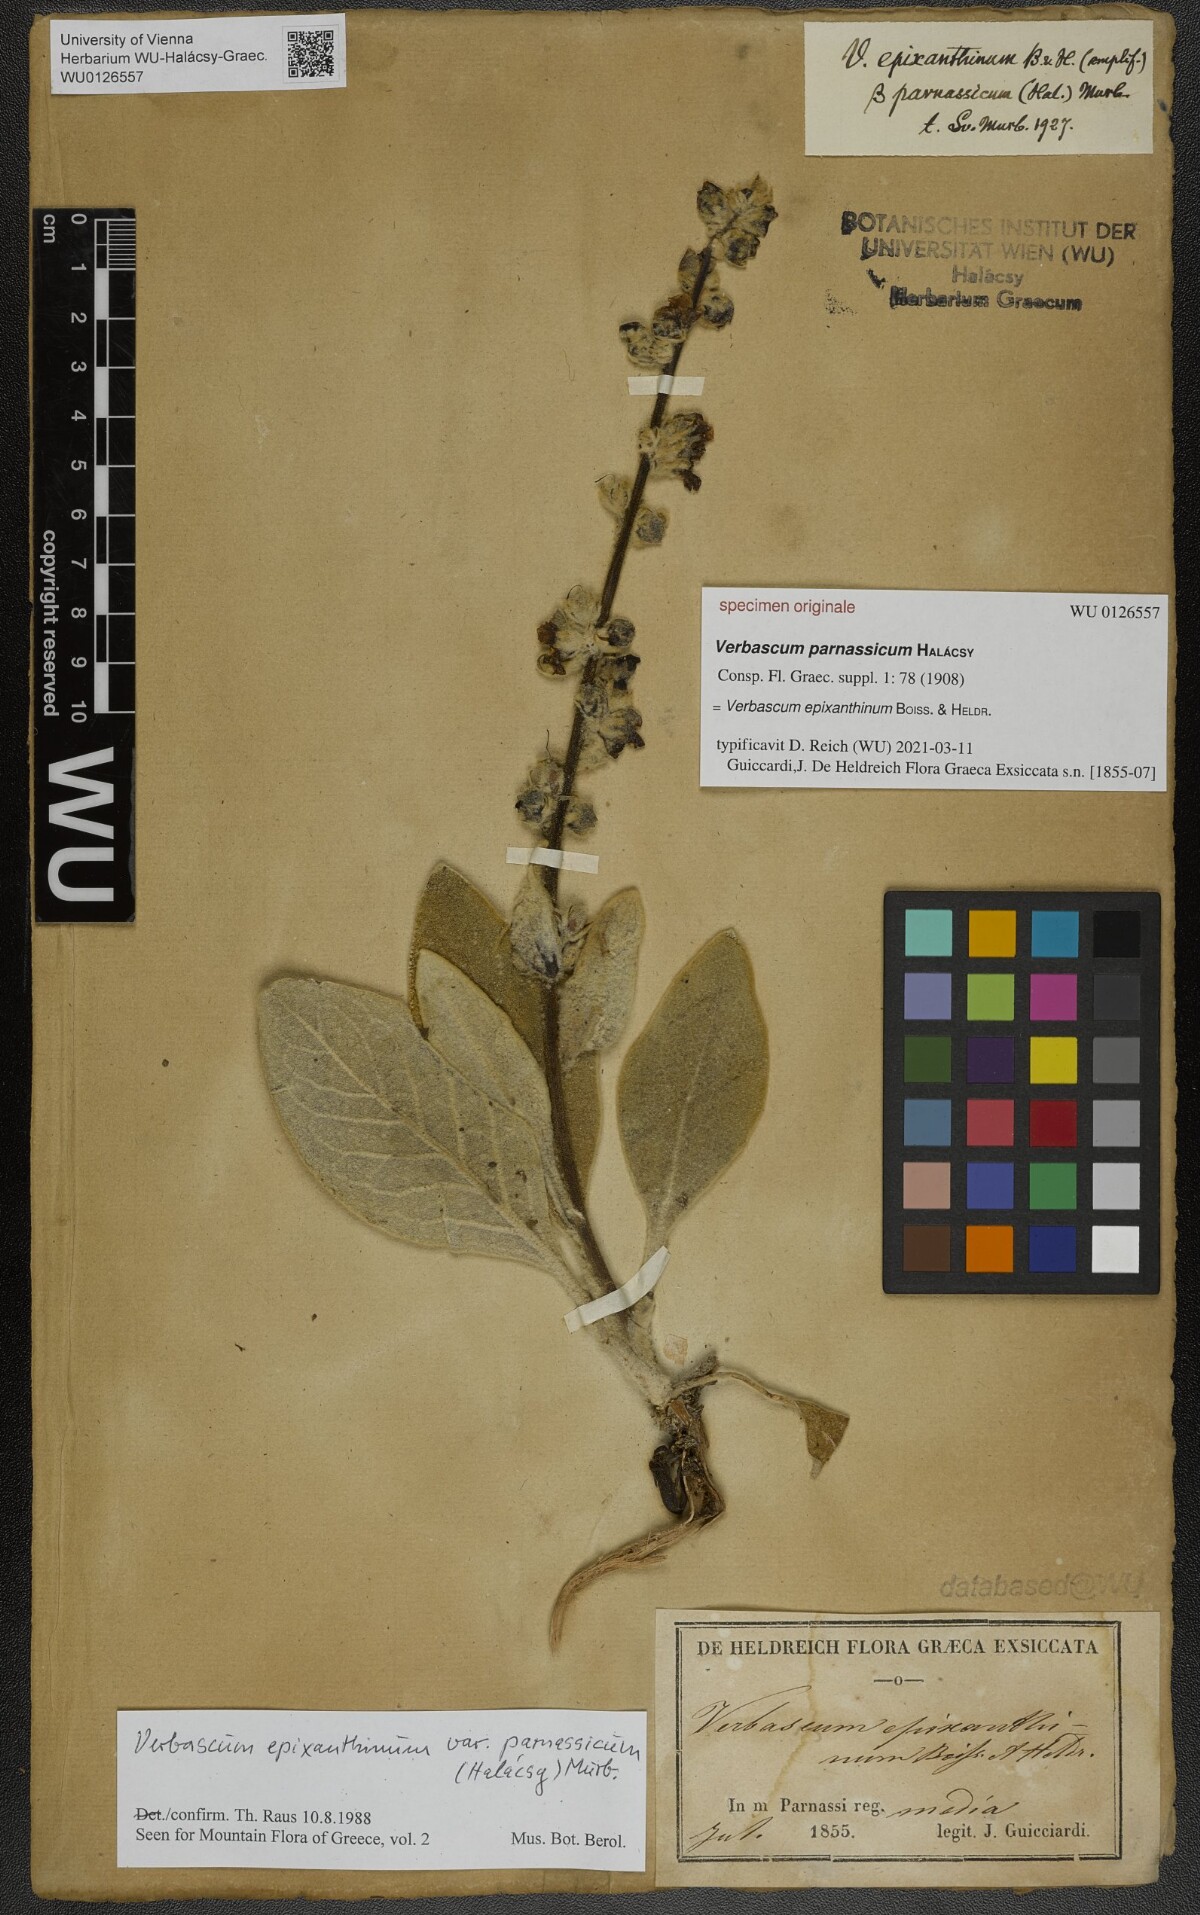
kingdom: Plantae
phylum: Tracheophyta
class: Magnoliopsida
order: Lamiales
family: Scrophulariaceae
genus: Verbascum
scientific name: Verbascum epixanthinum
